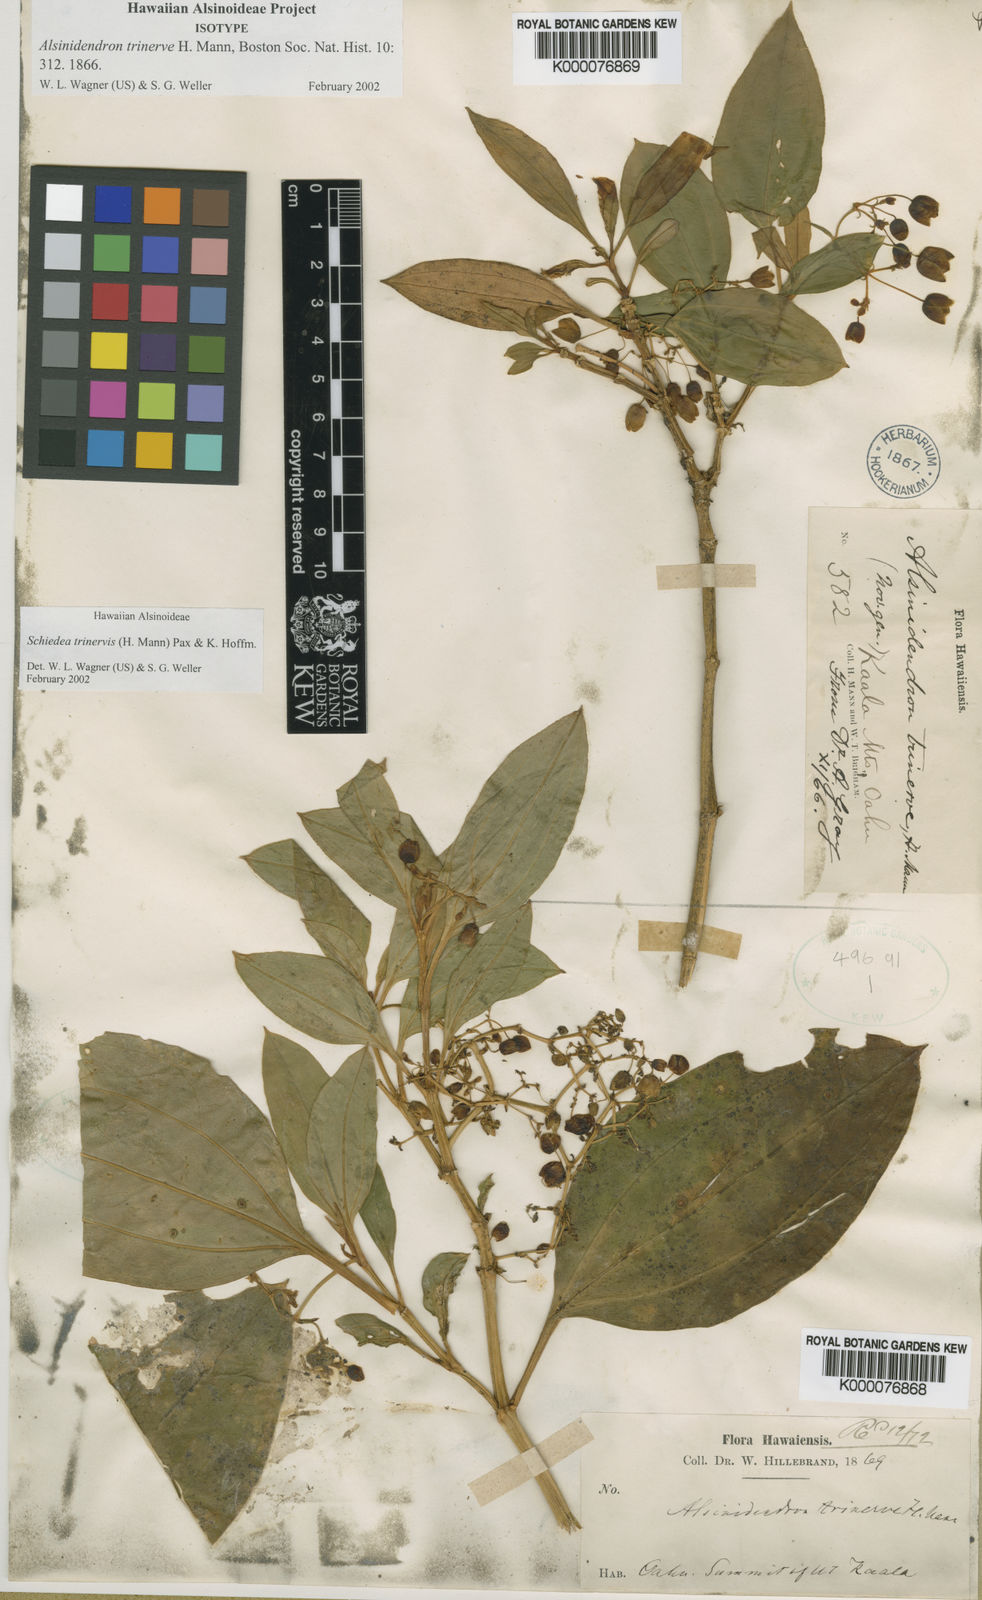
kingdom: Plantae
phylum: Tracheophyta
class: Magnoliopsida
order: Caryophyllales
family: Caryophyllaceae
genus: Schiedea
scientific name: Schiedea
